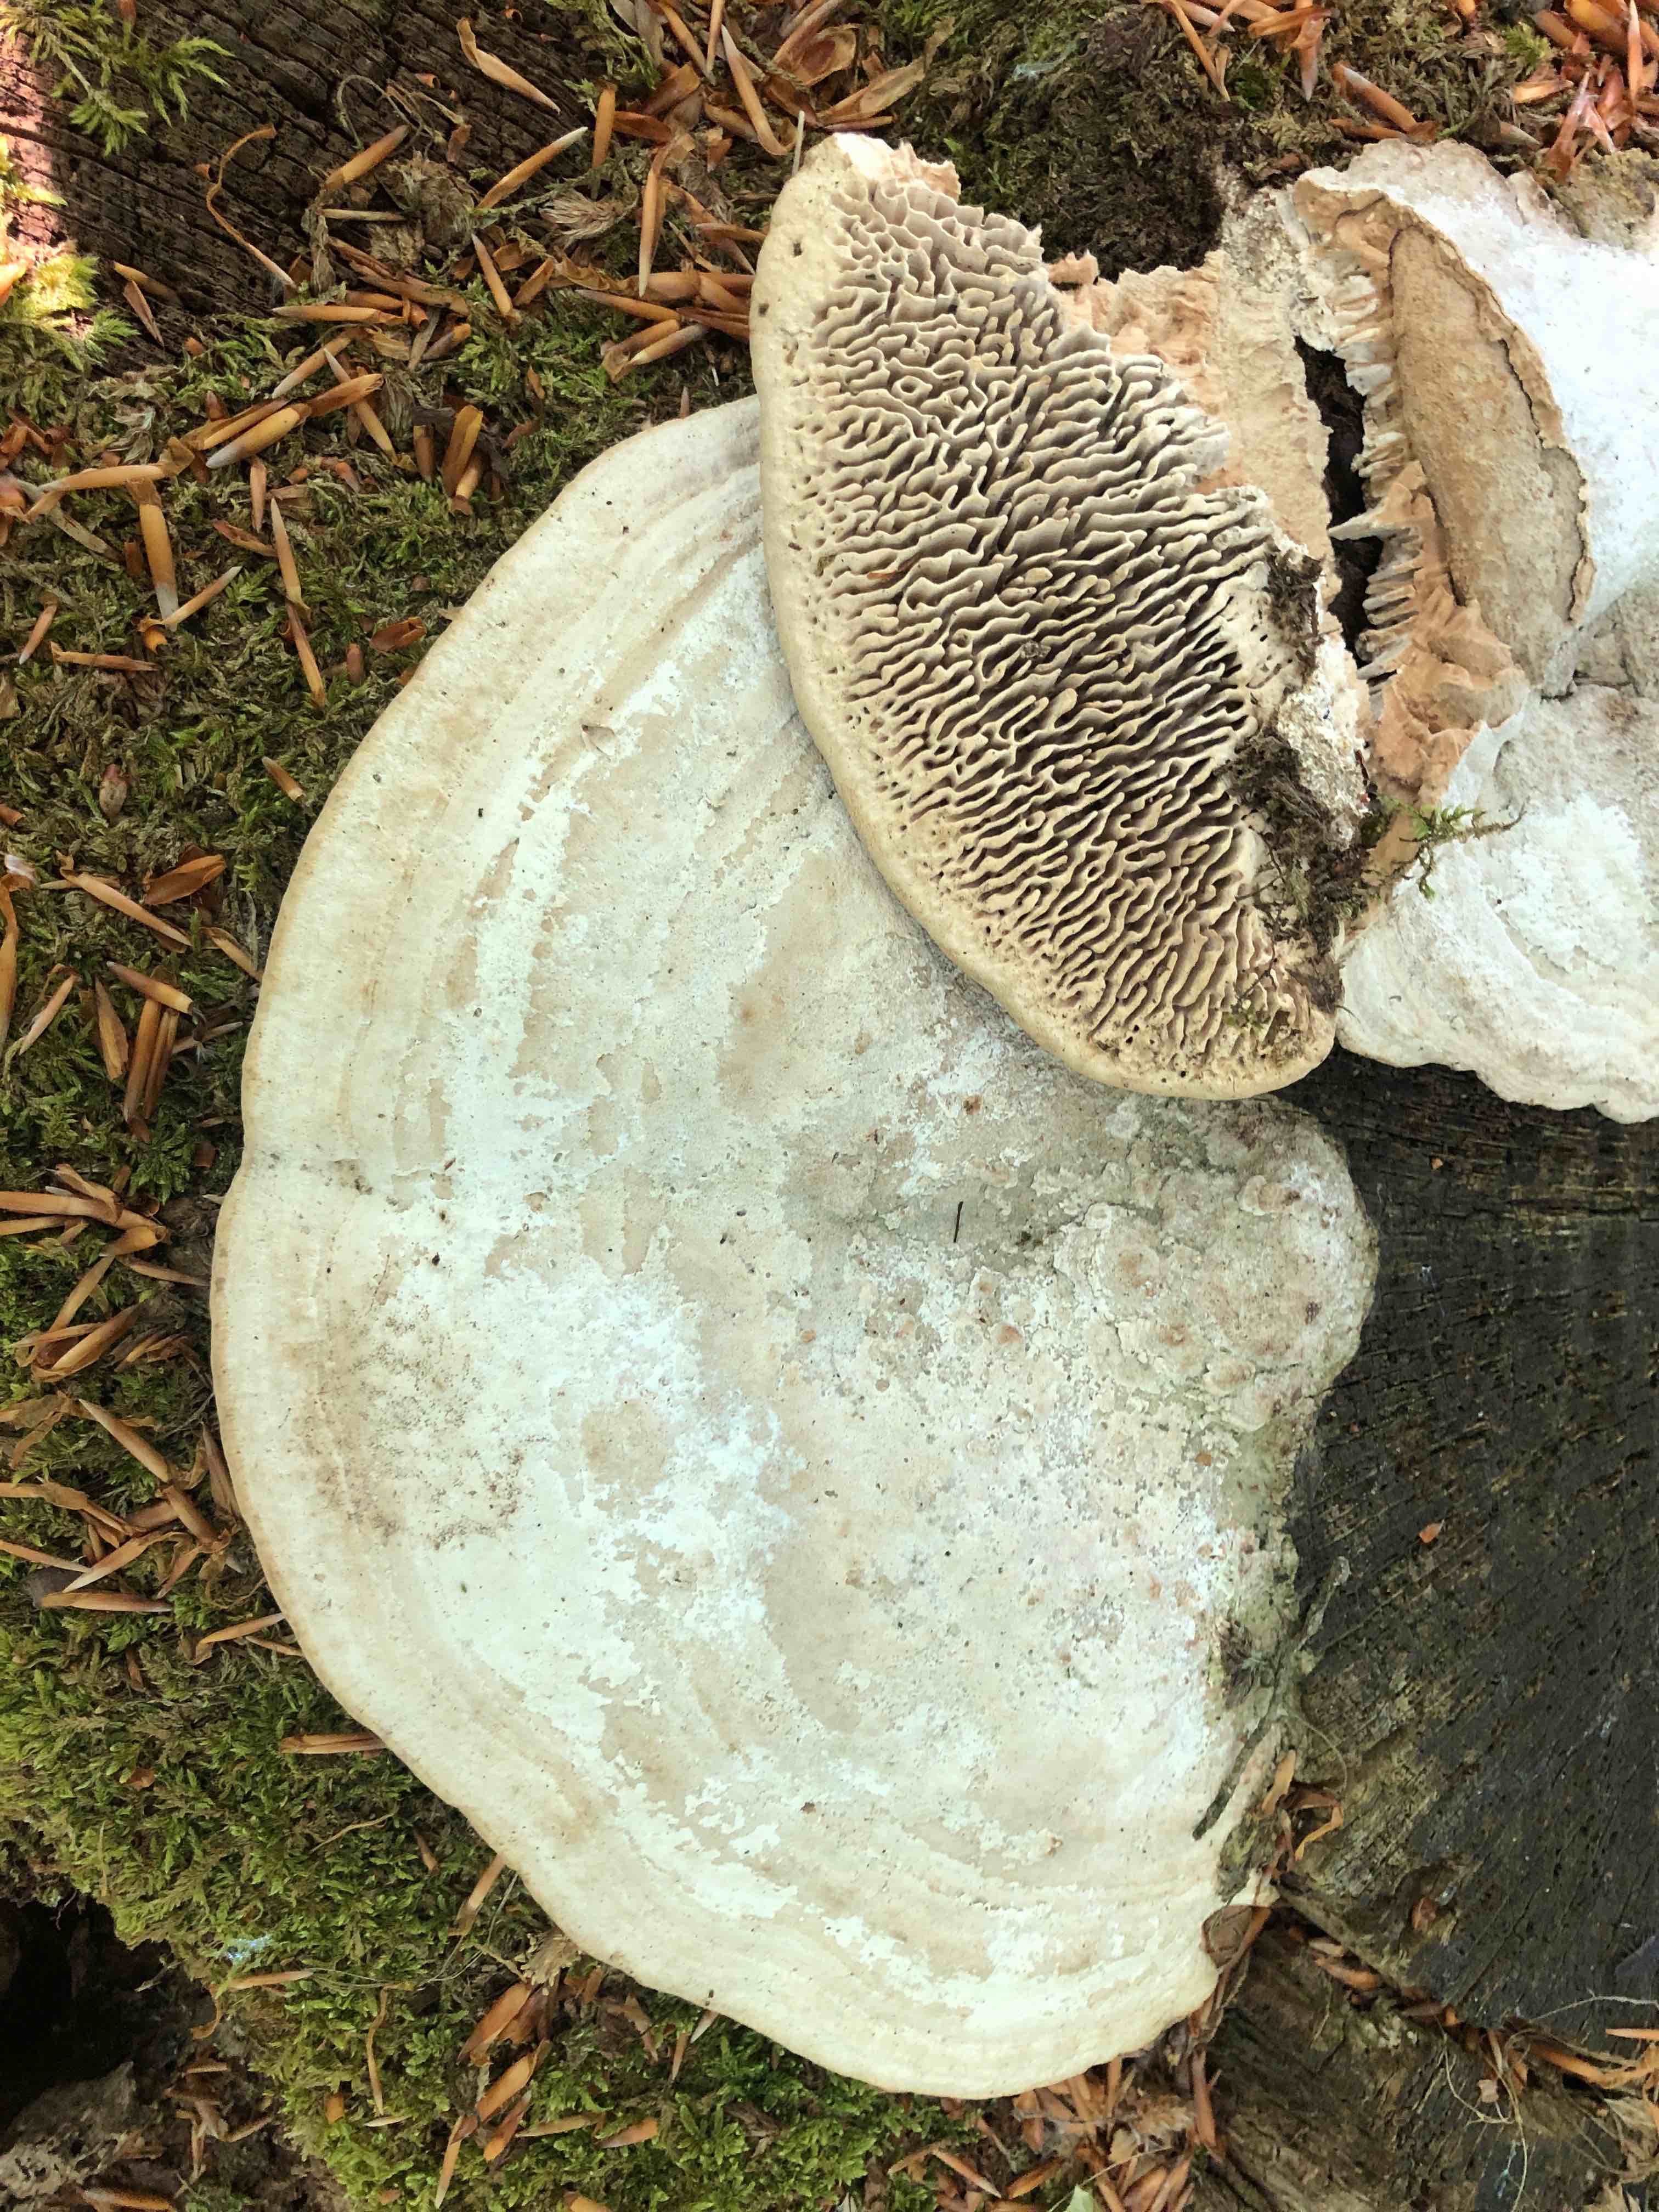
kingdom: Fungi
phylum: Basidiomycota
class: Agaricomycetes
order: Polyporales
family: Fomitopsidaceae
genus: Daedalea
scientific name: Daedalea quercina
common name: ege-labyrintsvamp
